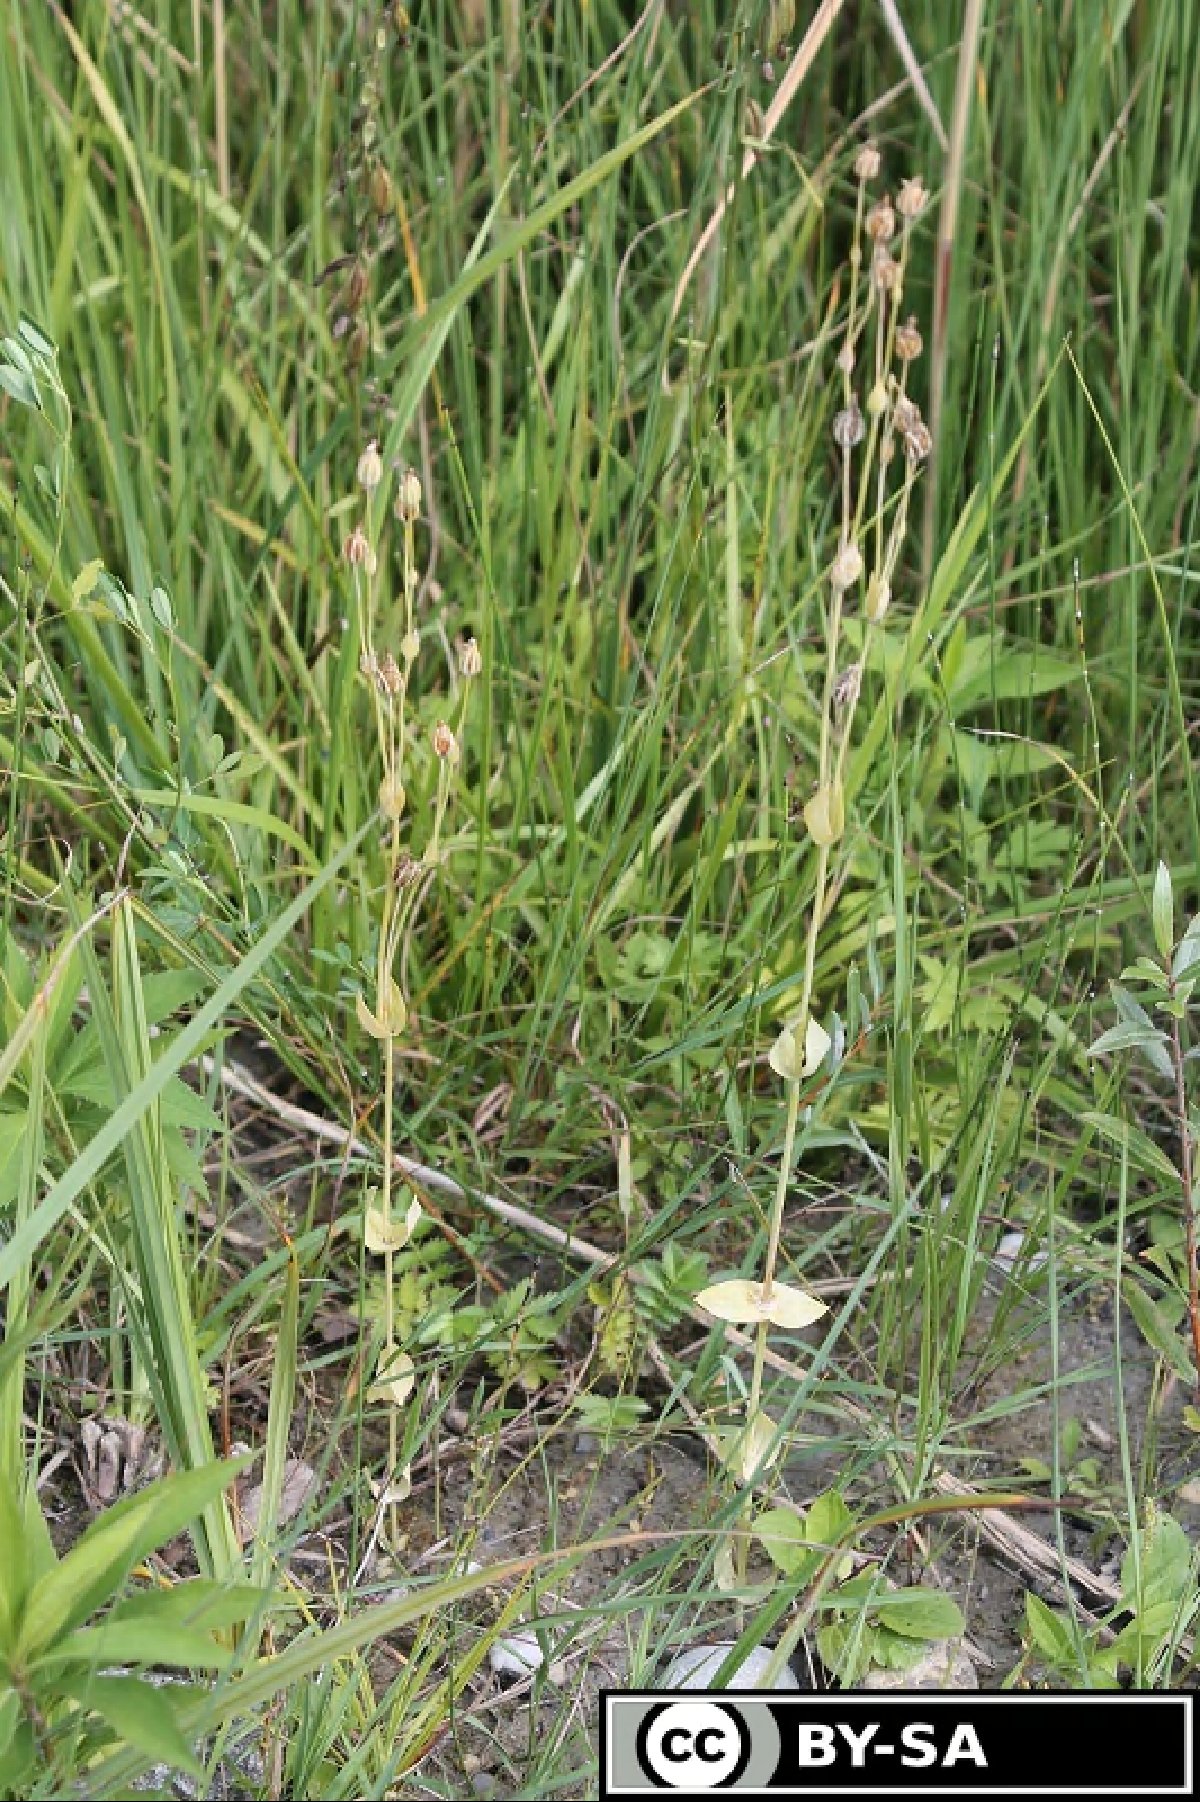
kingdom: Plantae
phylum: Tracheophyta
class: Magnoliopsida
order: Gentianales
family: Gentianaceae
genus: Blackstonia
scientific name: Blackstonia acuminata
